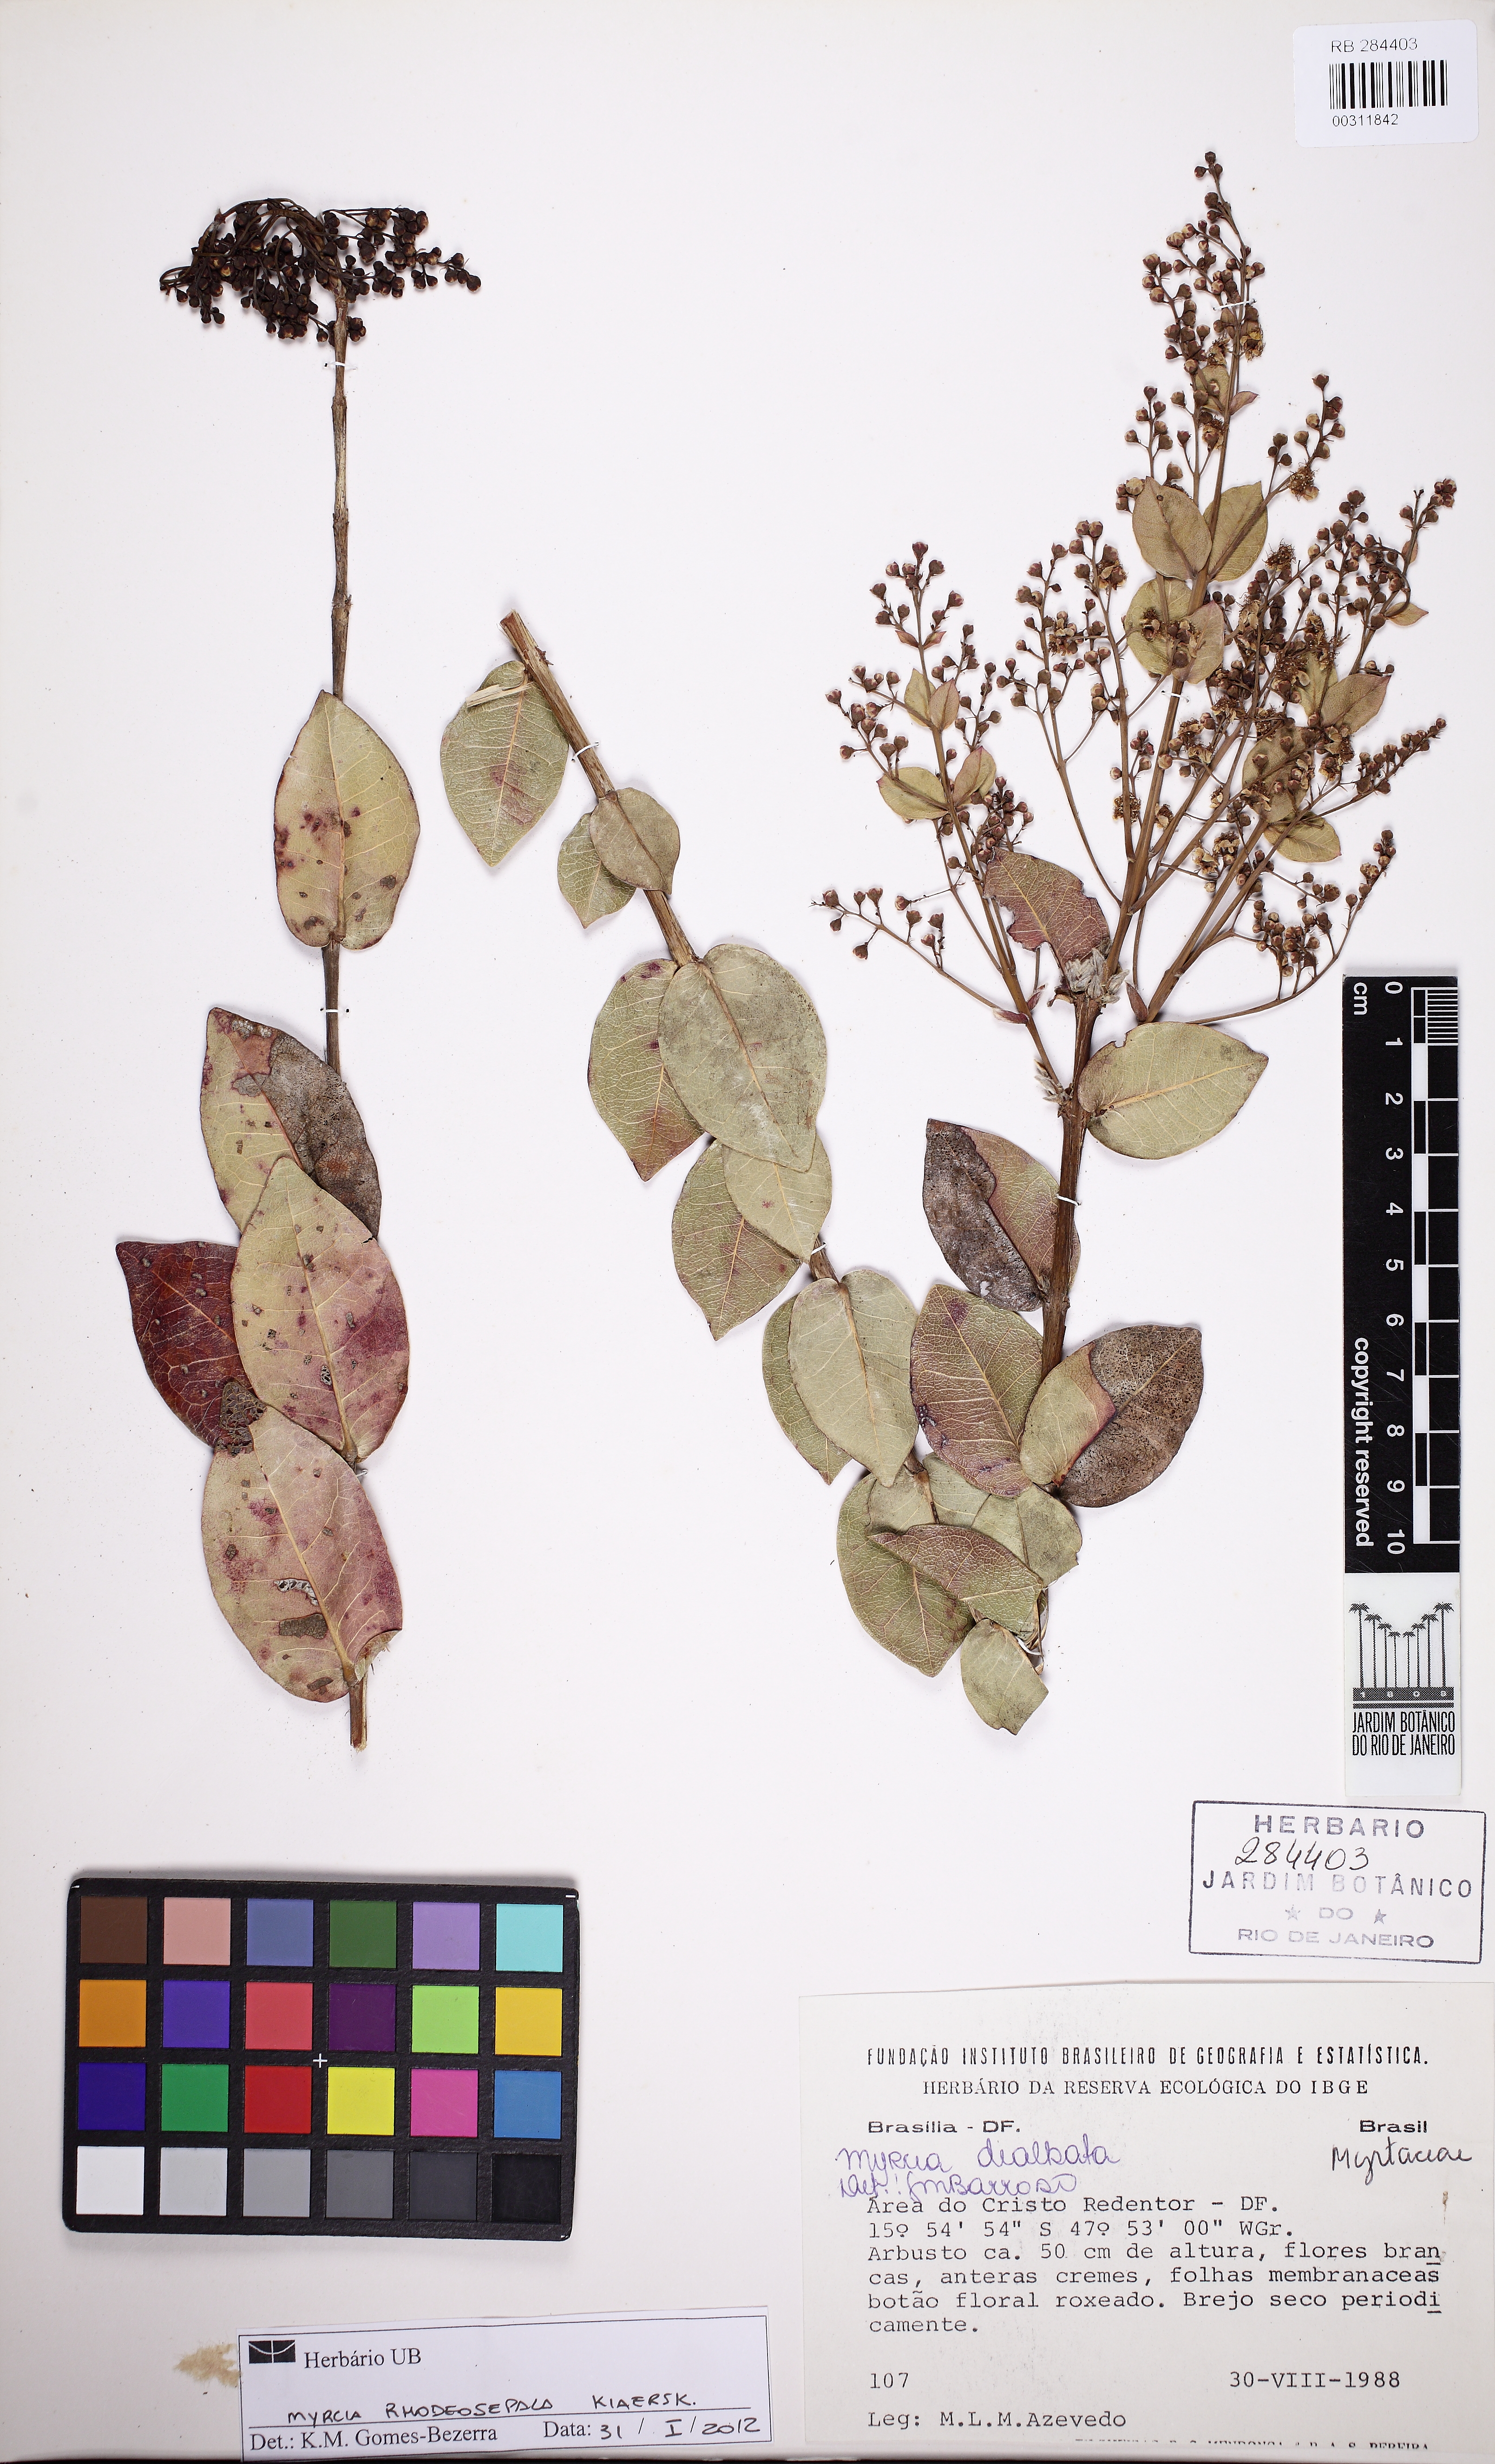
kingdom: Plantae
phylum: Tracheophyta
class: Magnoliopsida
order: Myrtales
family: Myrtaceae
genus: Myrcia
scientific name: Myrcia tomentosa
